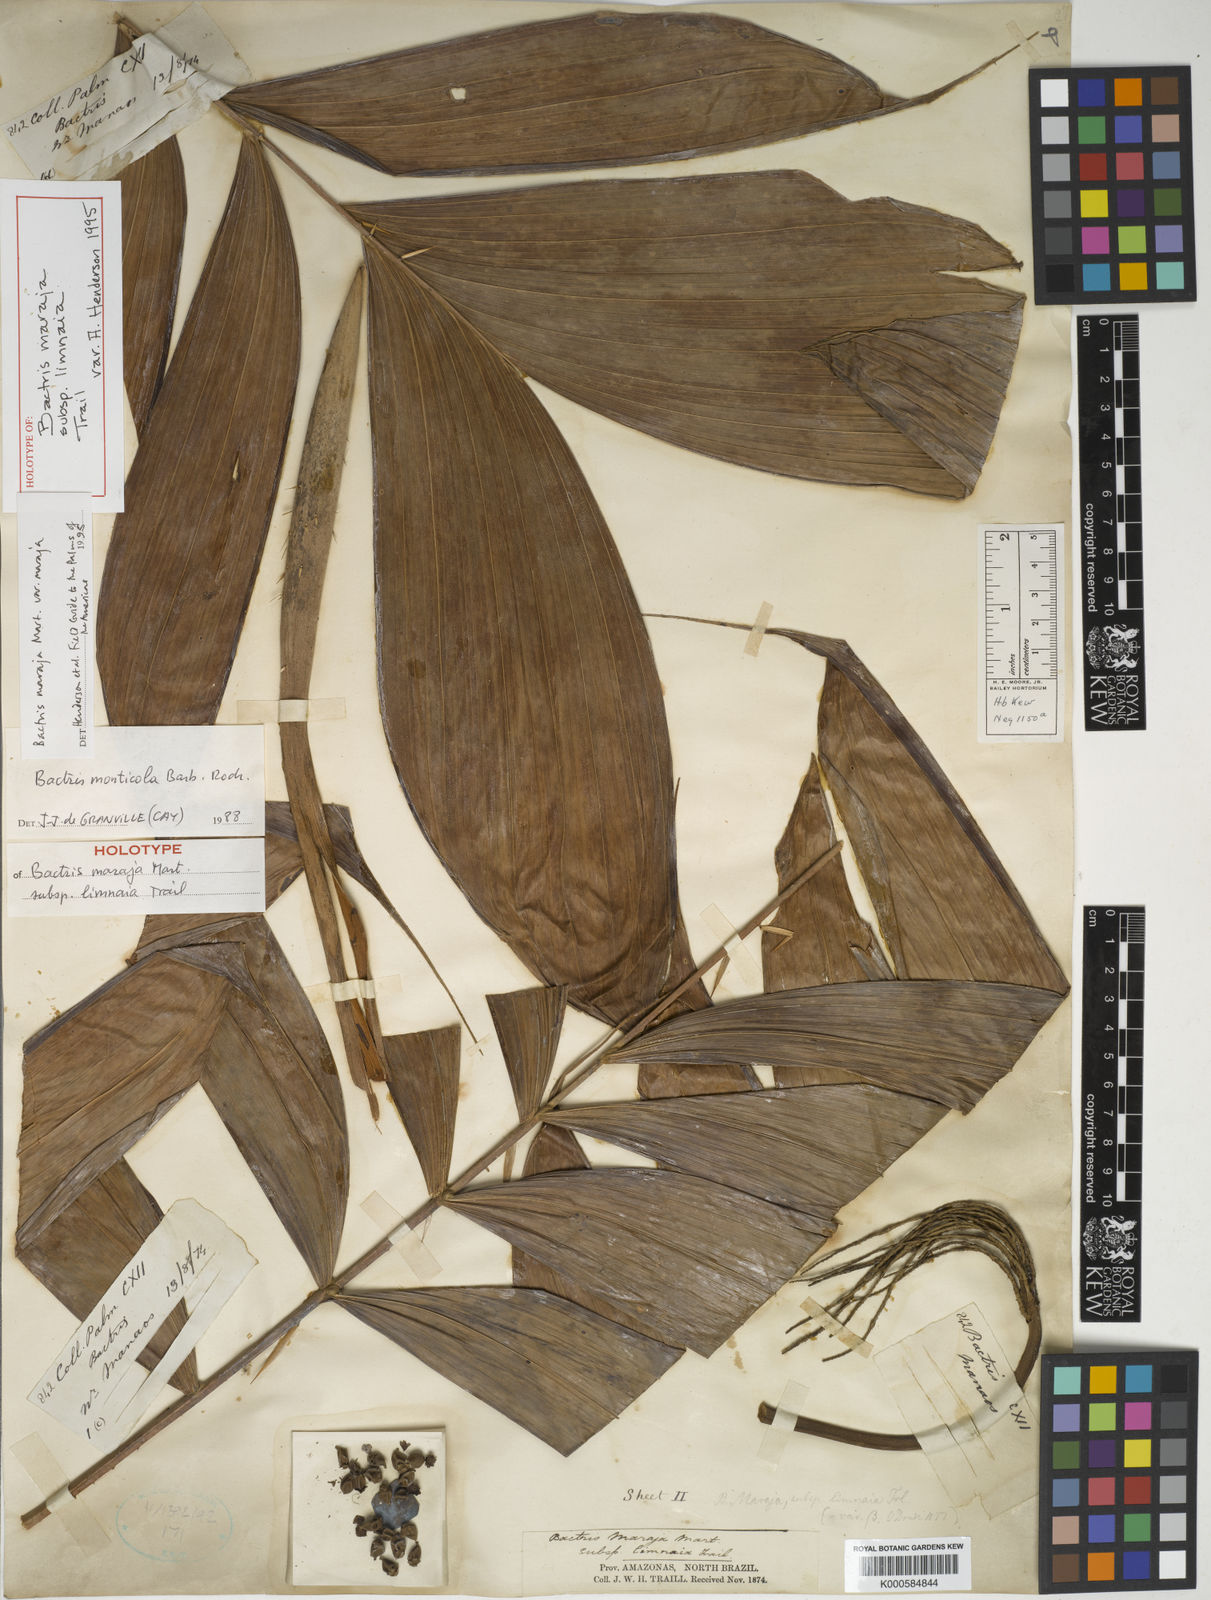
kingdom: Plantae
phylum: Tracheophyta
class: Liliopsida
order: Arecales
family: Arecaceae
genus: Bactris
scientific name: Bactris maraja
